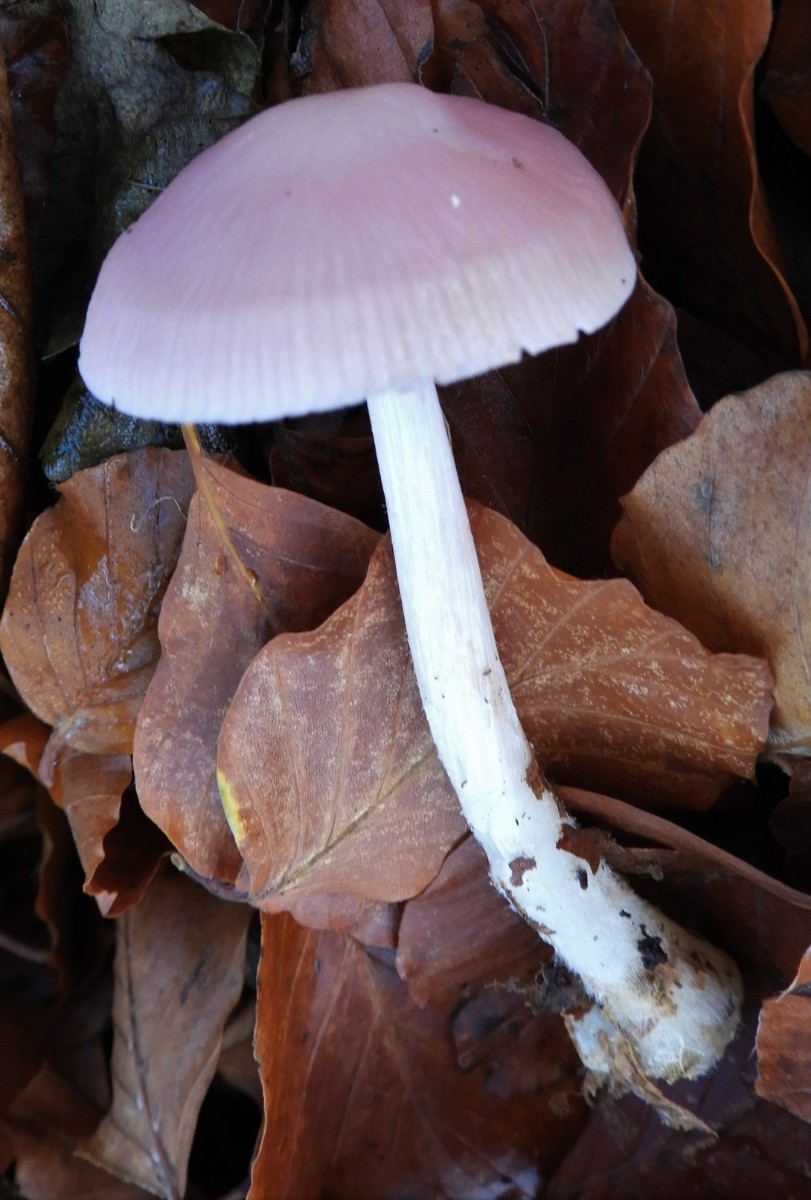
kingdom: Fungi
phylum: Basidiomycota
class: Agaricomycetes
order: Agaricales
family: Mycenaceae
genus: Mycena
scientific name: Mycena rosea
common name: rosa huesvamp
